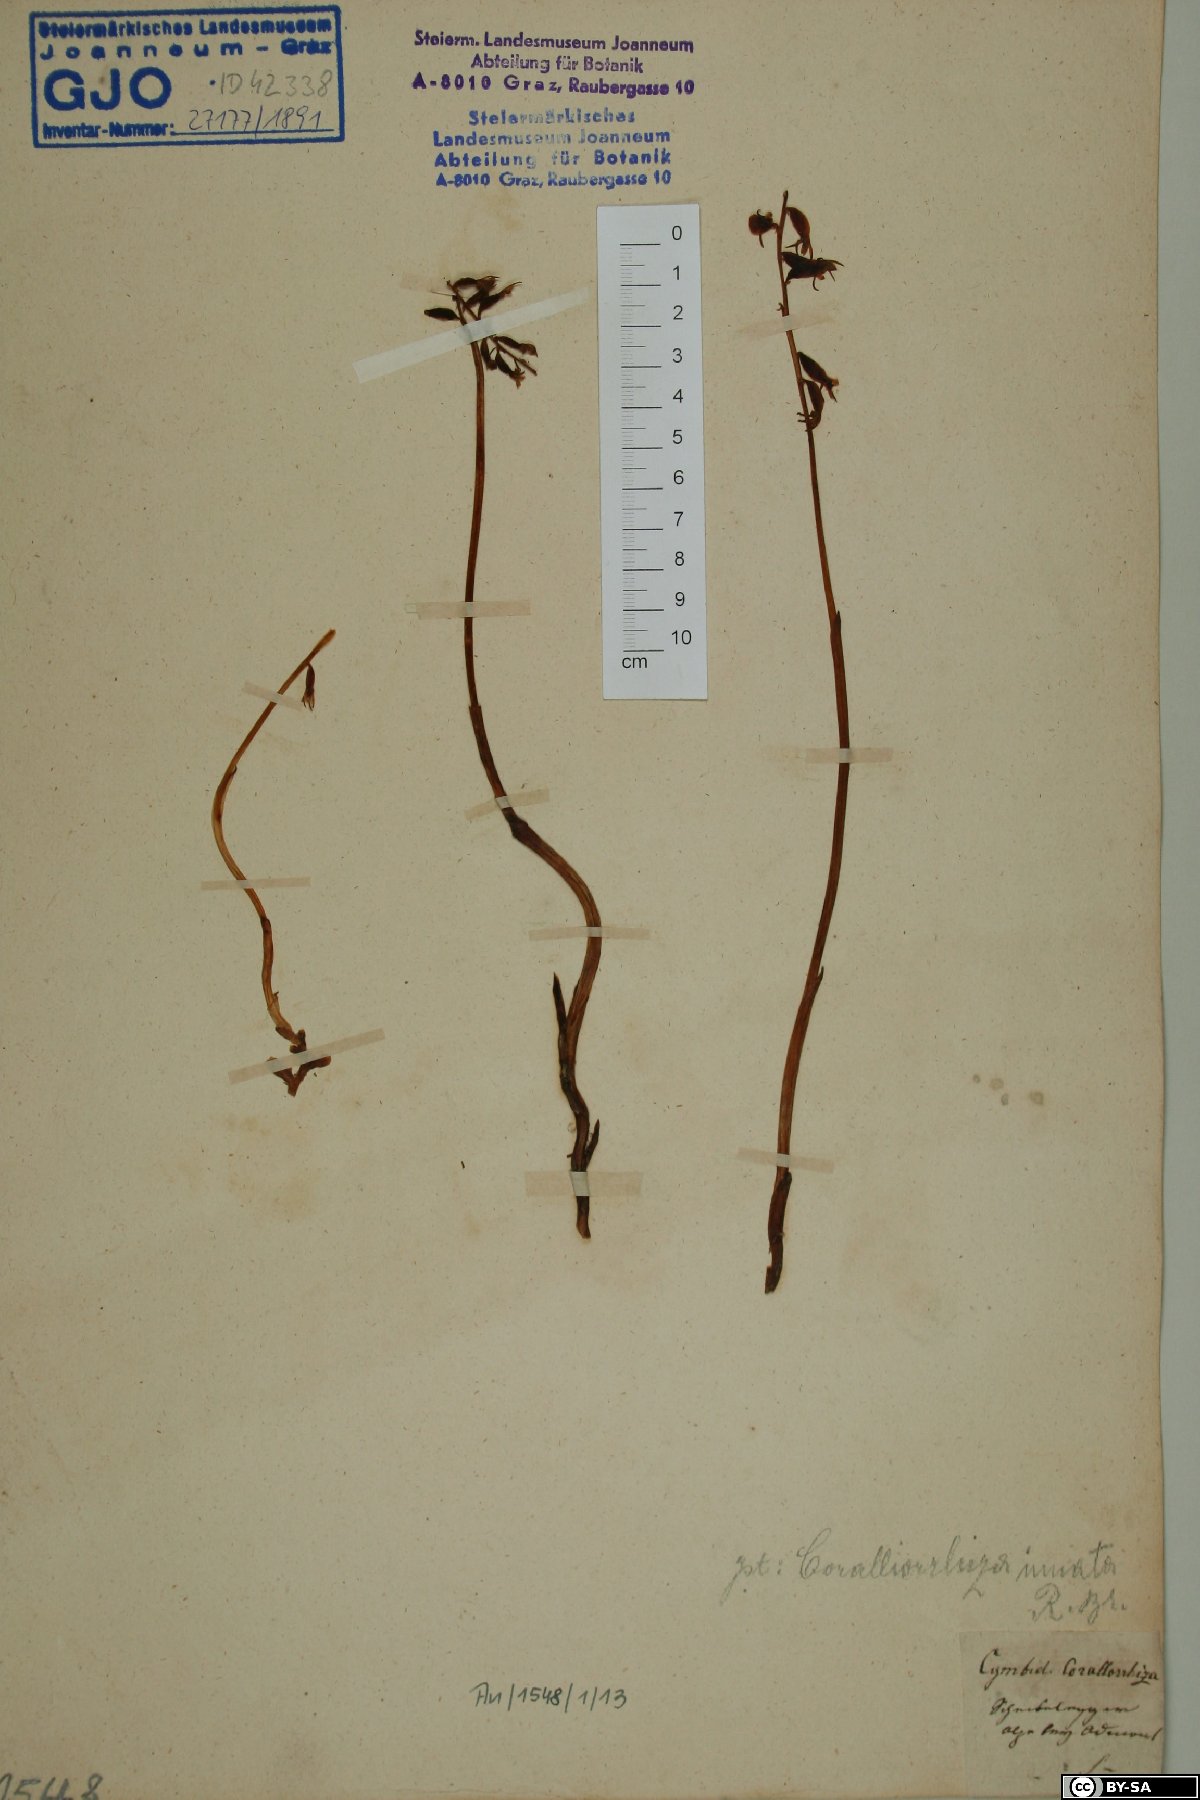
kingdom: Plantae
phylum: Tracheophyta
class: Liliopsida
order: Asparagales
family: Orchidaceae
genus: Corallorhiza
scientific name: Corallorhiza trifida
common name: Yellow coralroot
